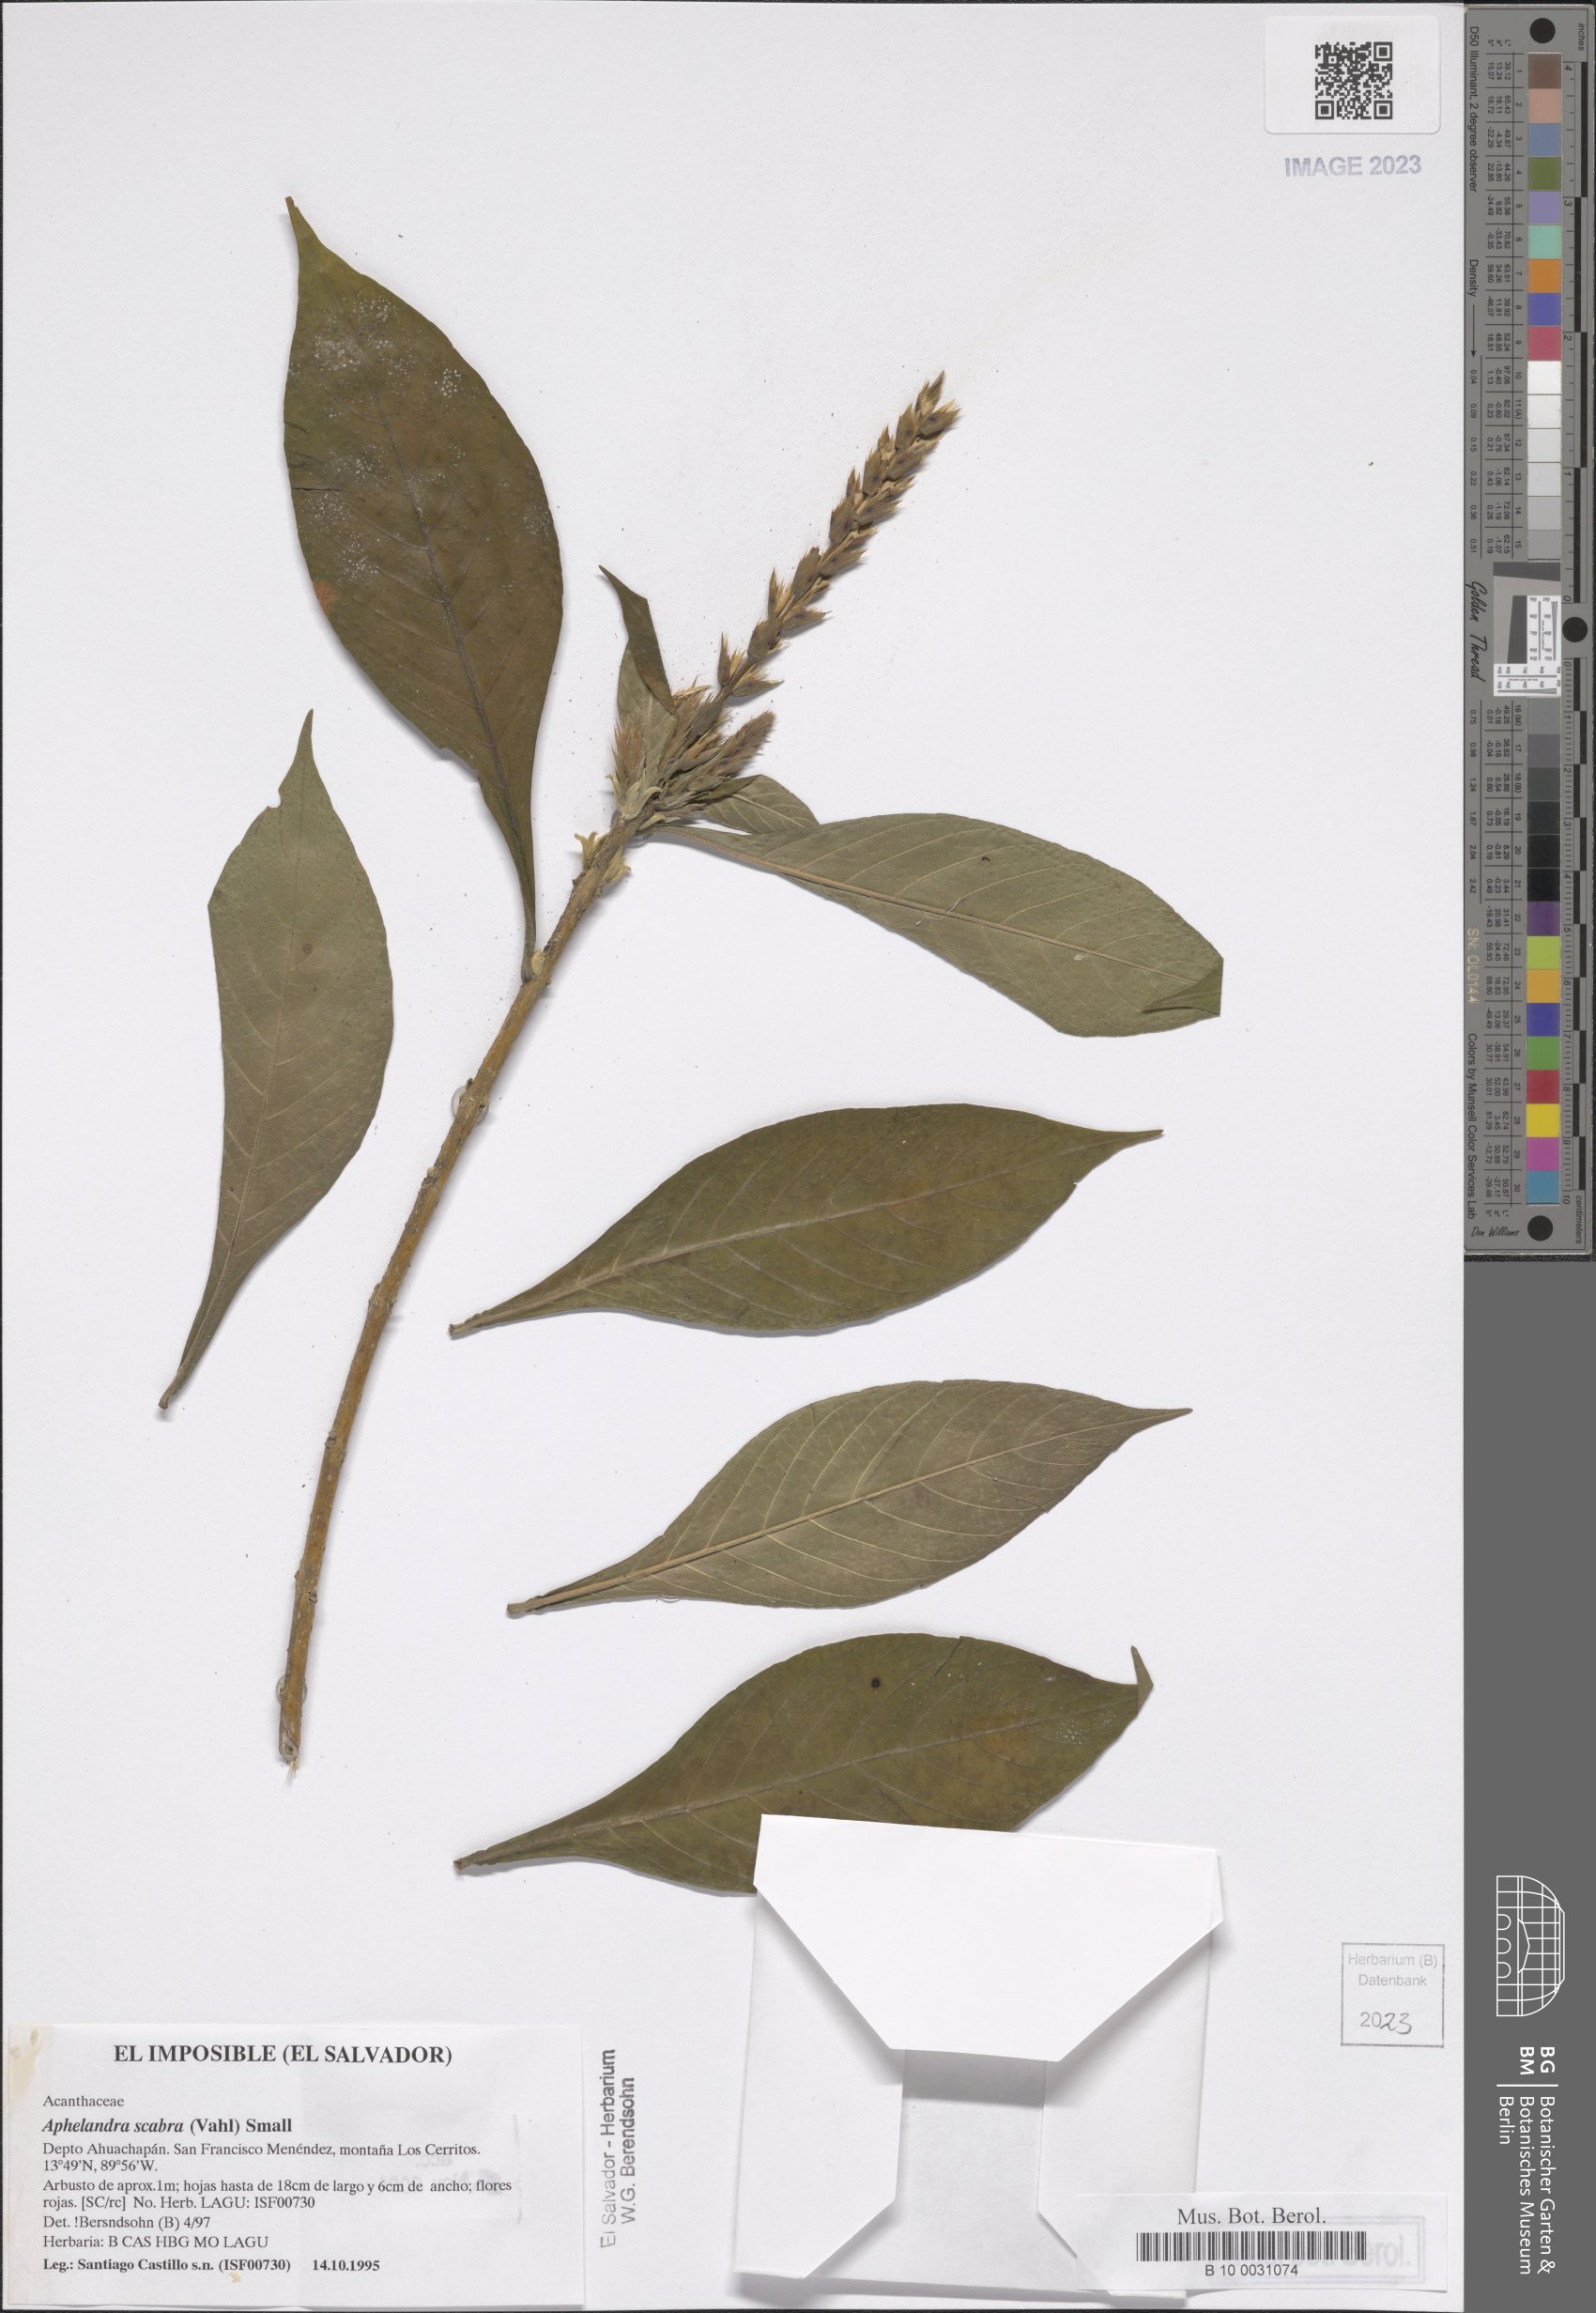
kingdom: Plantae
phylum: Tracheophyta
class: Magnoliopsida
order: Lamiales
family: Acanthaceae
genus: Aphelandra
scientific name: Aphelandra scabra
